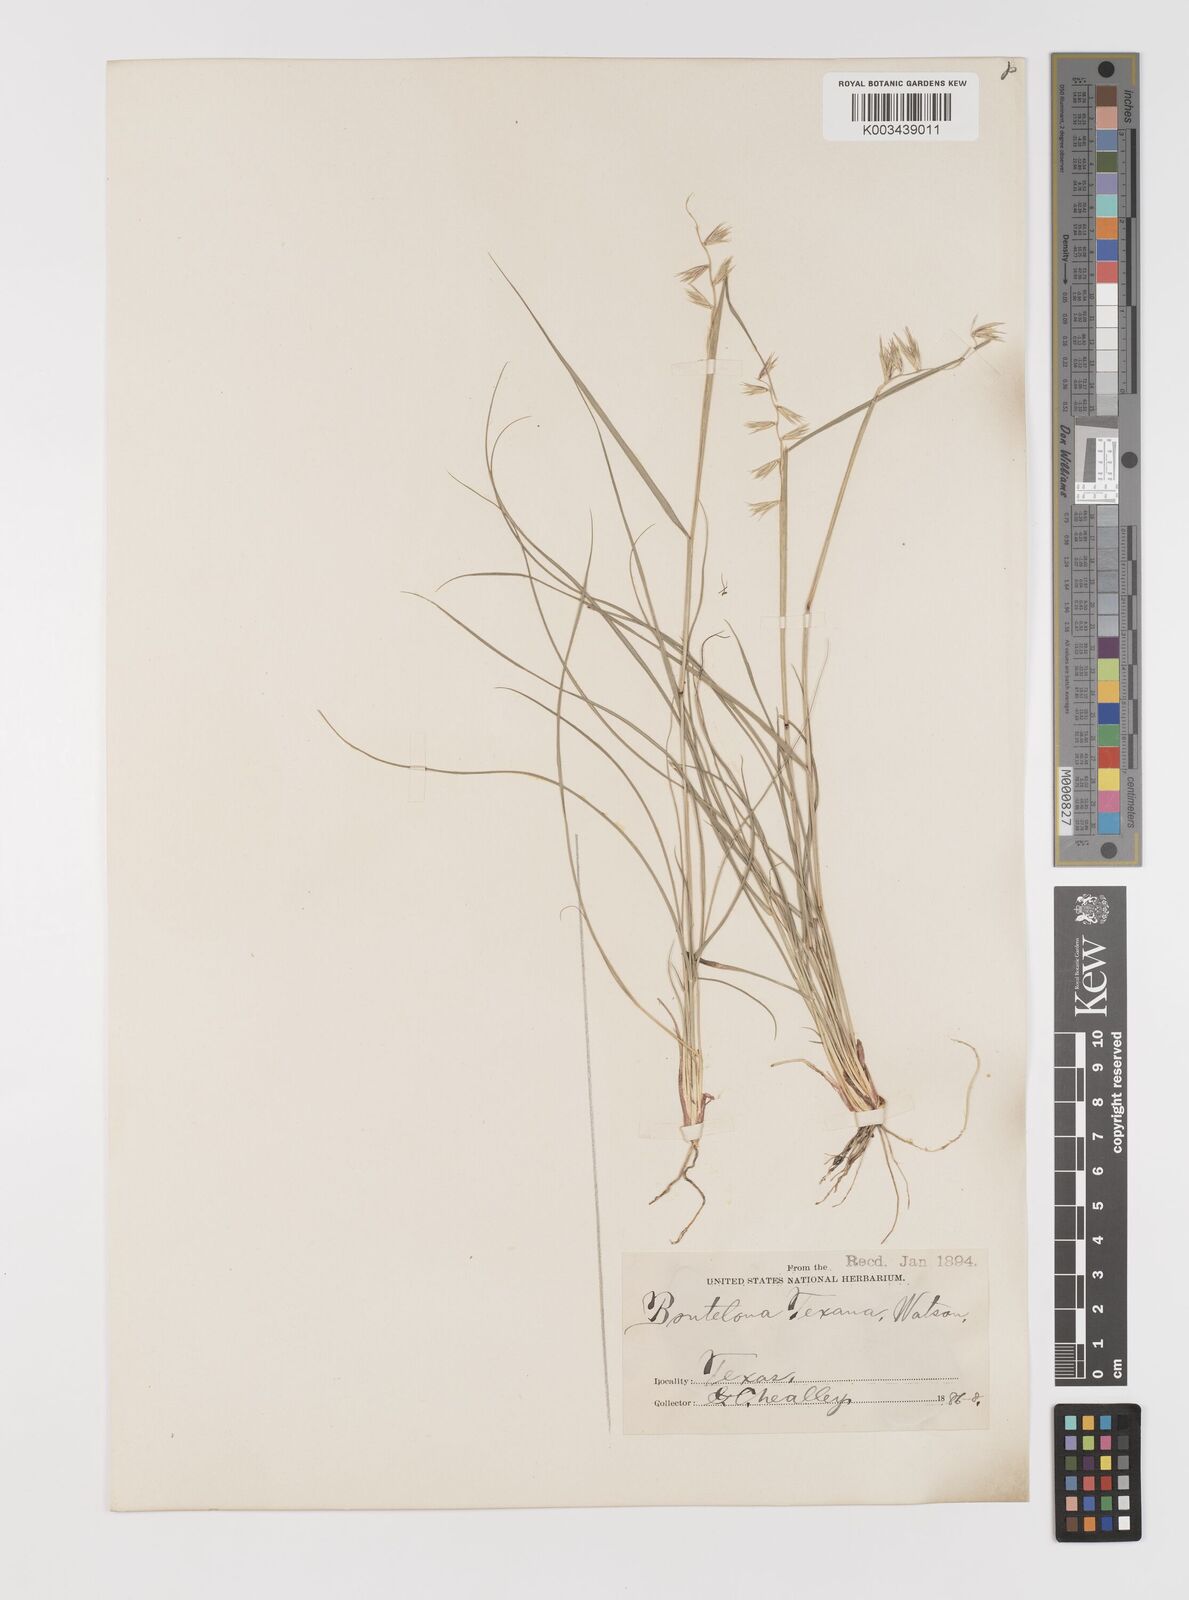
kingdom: Plantae
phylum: Tracheophyta
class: Liliopsida
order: Poales
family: Poaceae
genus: Bouteloua
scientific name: Bouteloua rigidiseta
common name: Texas grama
